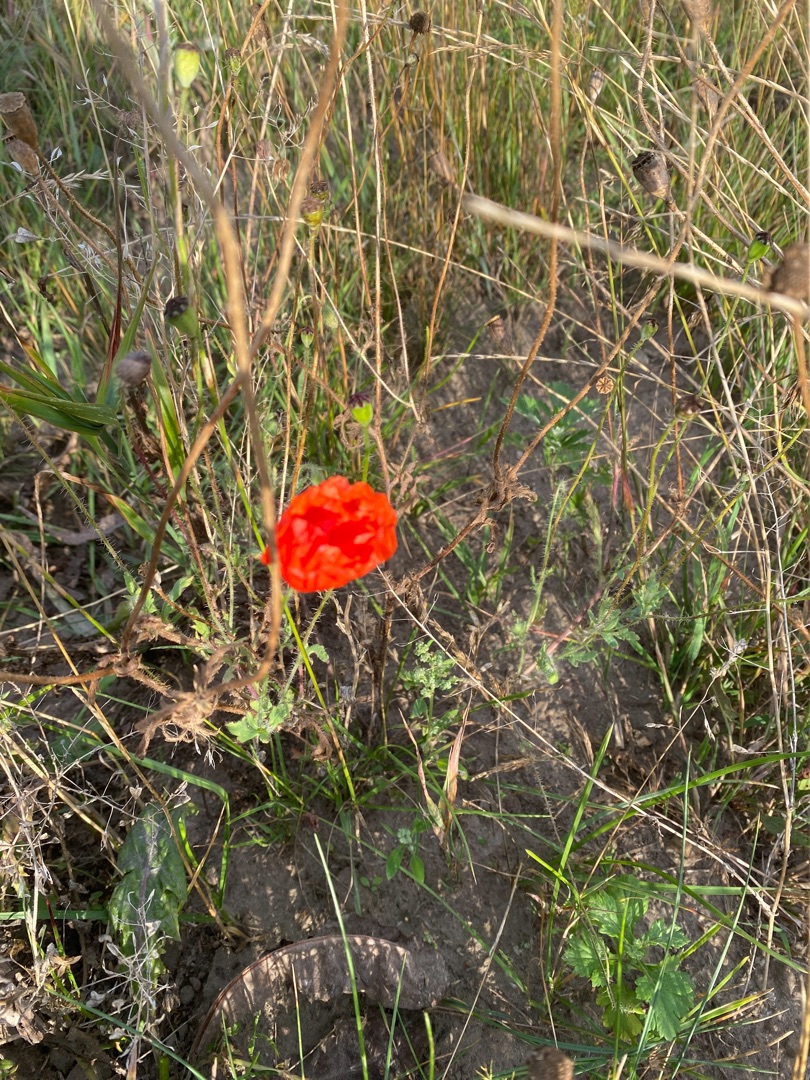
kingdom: Plantae
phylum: Tracheophyta
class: Magnoliopsida
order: Ranunculales
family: Papaveraceae
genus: Papaver
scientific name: Papaver rhoeas
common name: Korn-valmue
